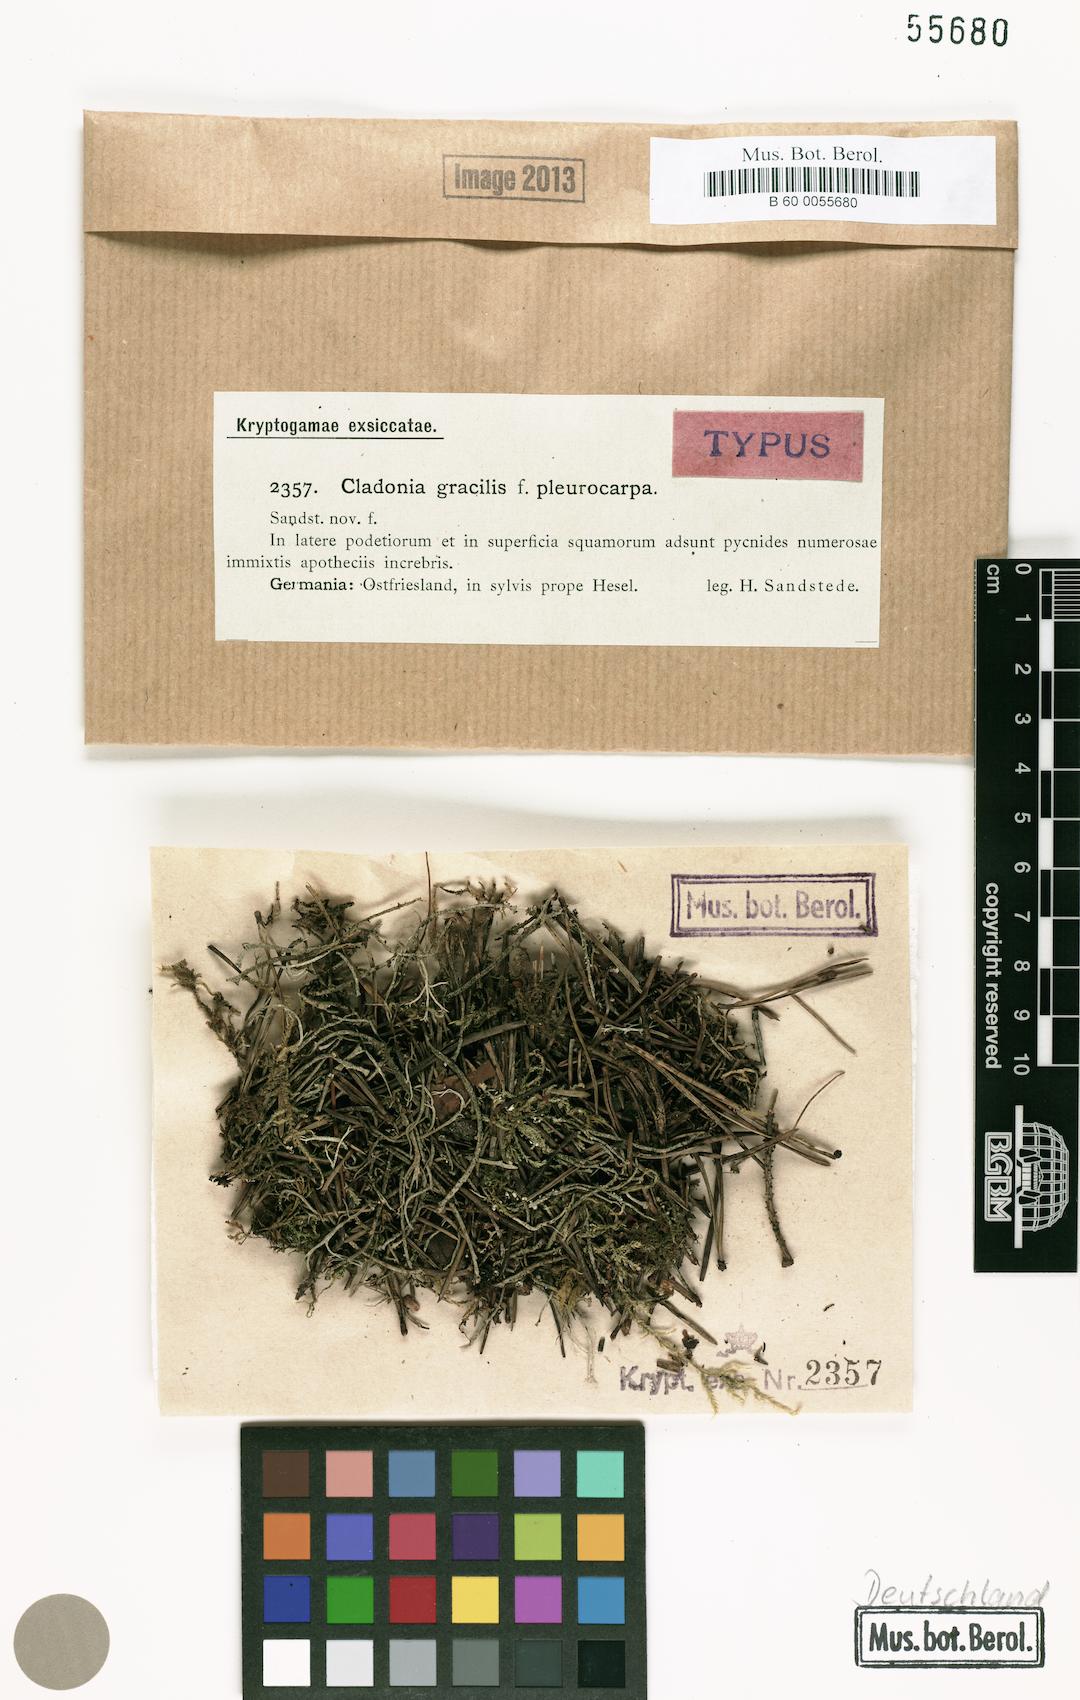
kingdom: Fungi
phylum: Ascomycota
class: Lecanoromycetes
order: Lecanorales
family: Cladoniaceae
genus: Cladonia
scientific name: Cladonia gracilis
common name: Smooth clad lichen
